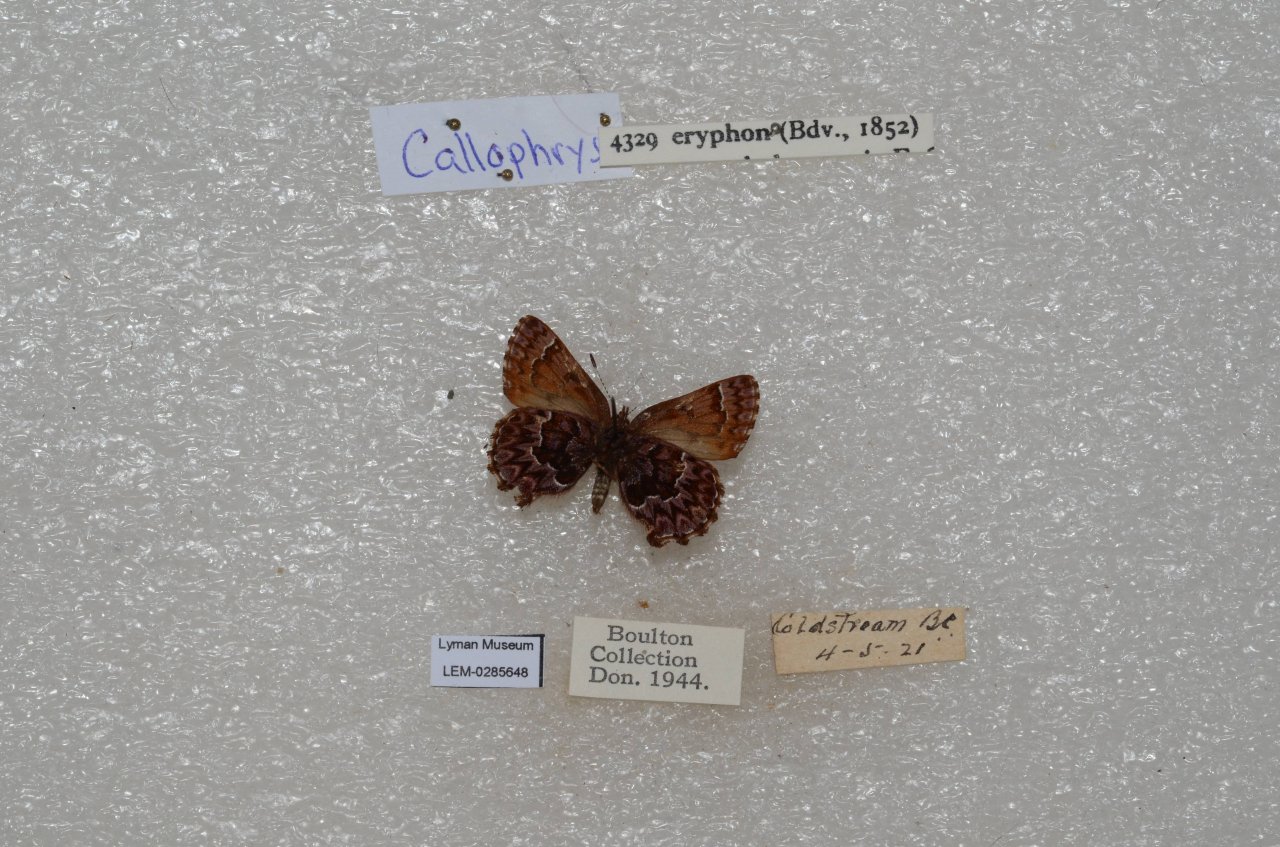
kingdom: Animalia
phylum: Arthropoda
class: Insecta
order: Lepidoptera
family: Lycaenidae
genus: Incisalia
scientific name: Incisalia eryphon
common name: Western Pine Elfin
